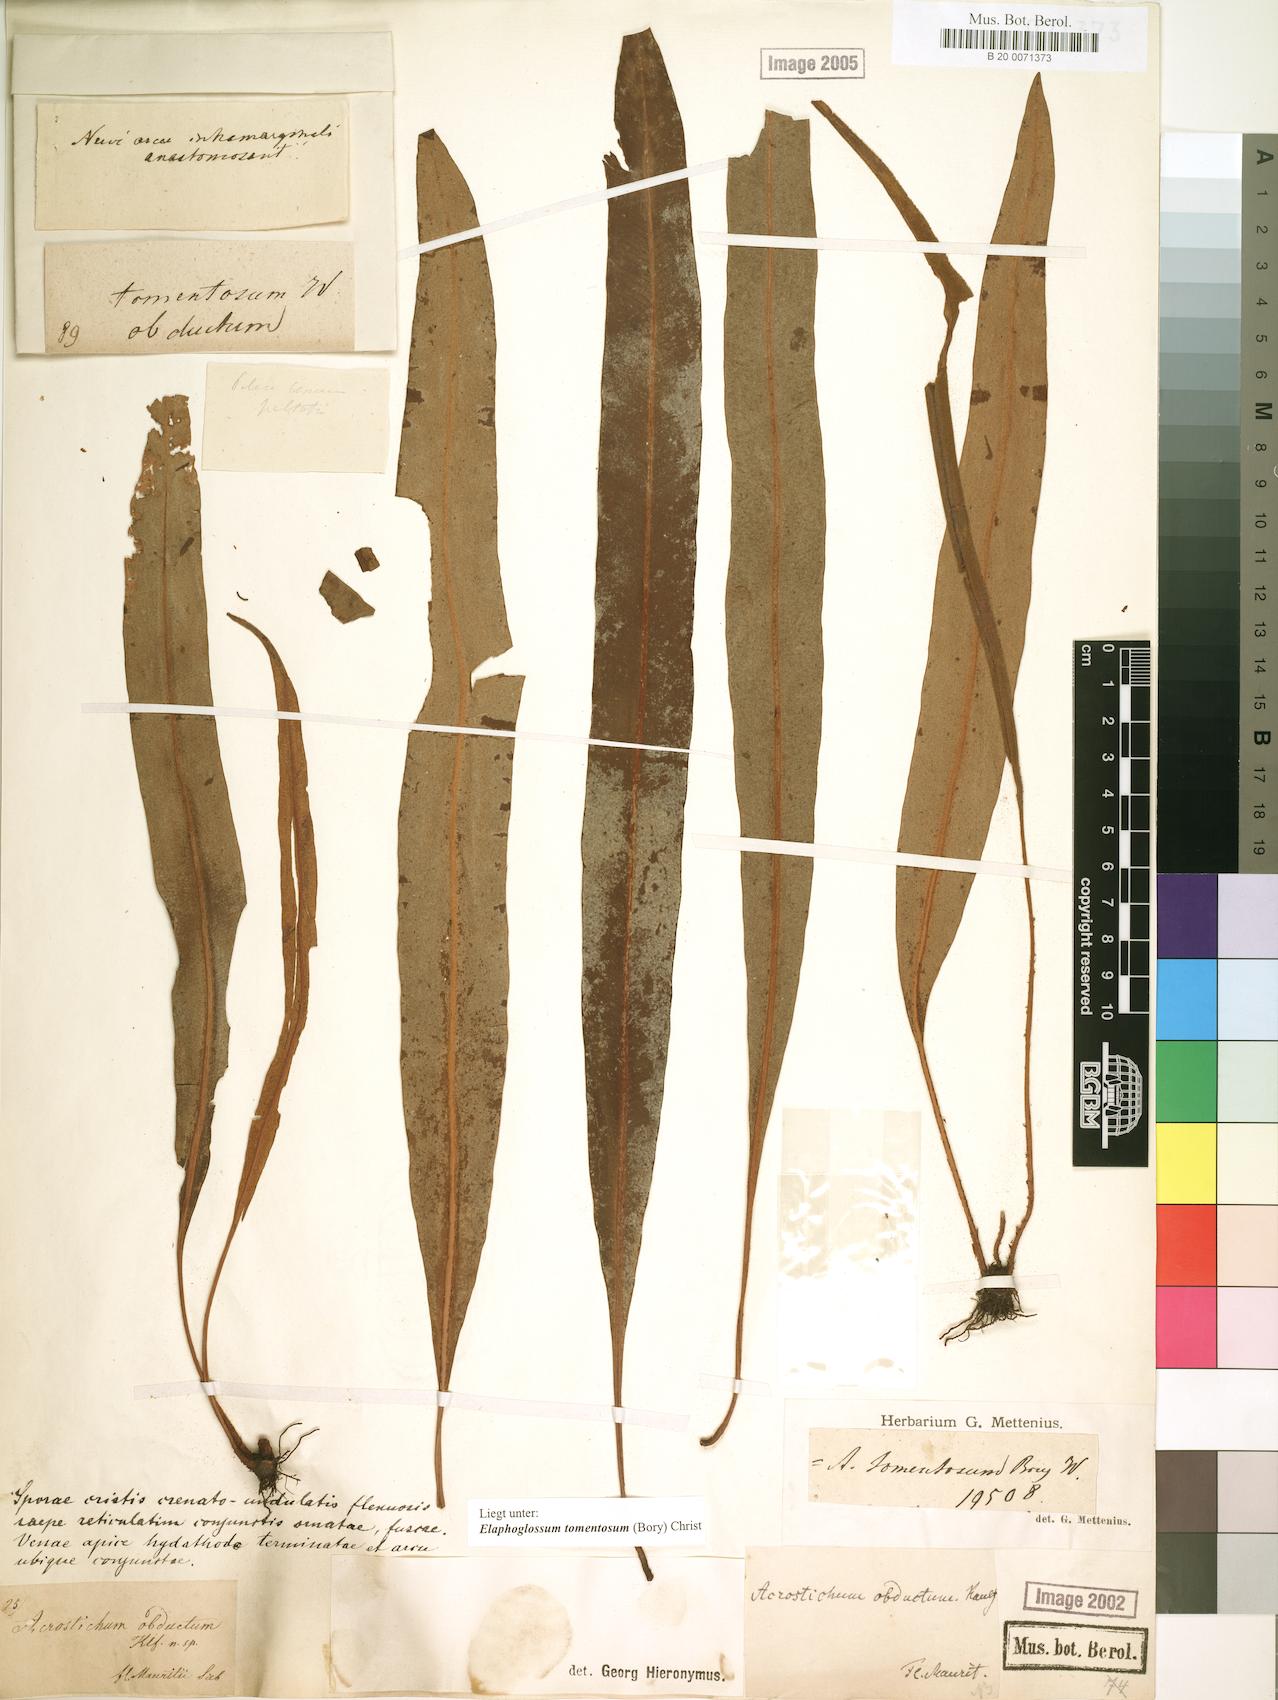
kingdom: Plantae
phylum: Tracheophyta
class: Polypodiopsida
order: Polypodiales
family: Dryopteridaceae
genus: Elaphoglossum
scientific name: Elaphoglossum tomentosum
